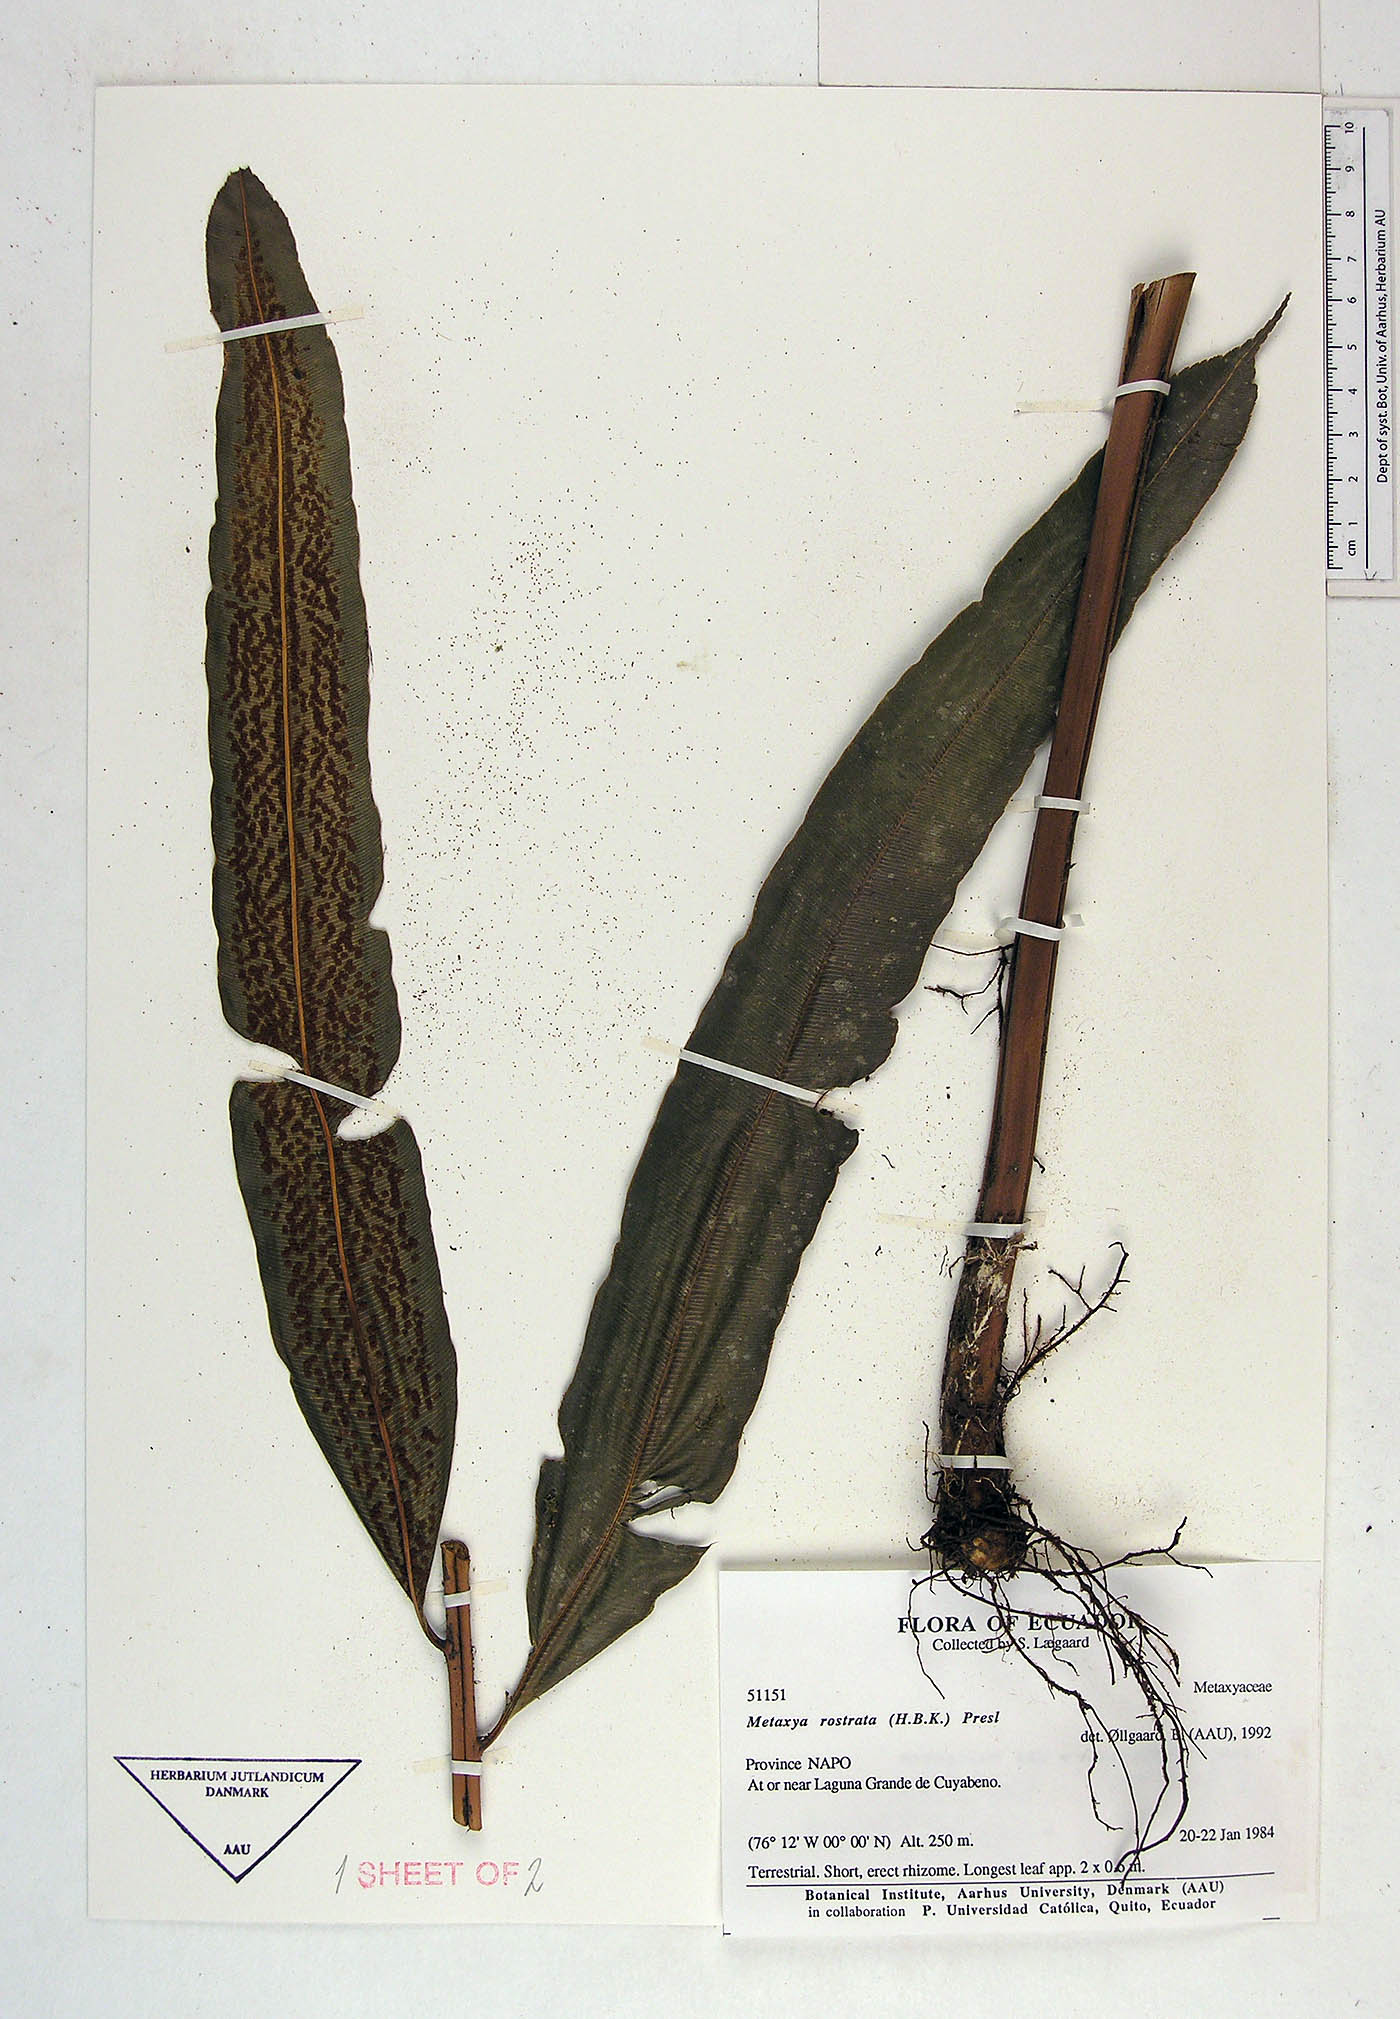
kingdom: Plantae
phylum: Tracheophyta
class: Polypodiopsida
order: Cyatheales
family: Metaxyaceae
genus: Metaxya
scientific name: Metaxya parkeri
